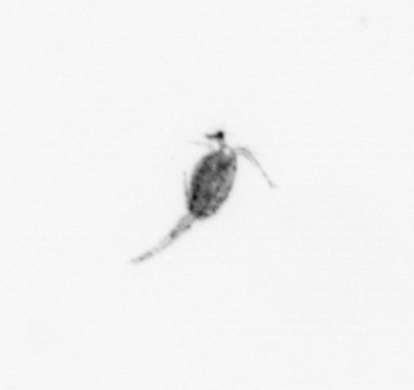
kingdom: Animalia
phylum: Arthropoda
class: Copepoda
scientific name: Copepoda
